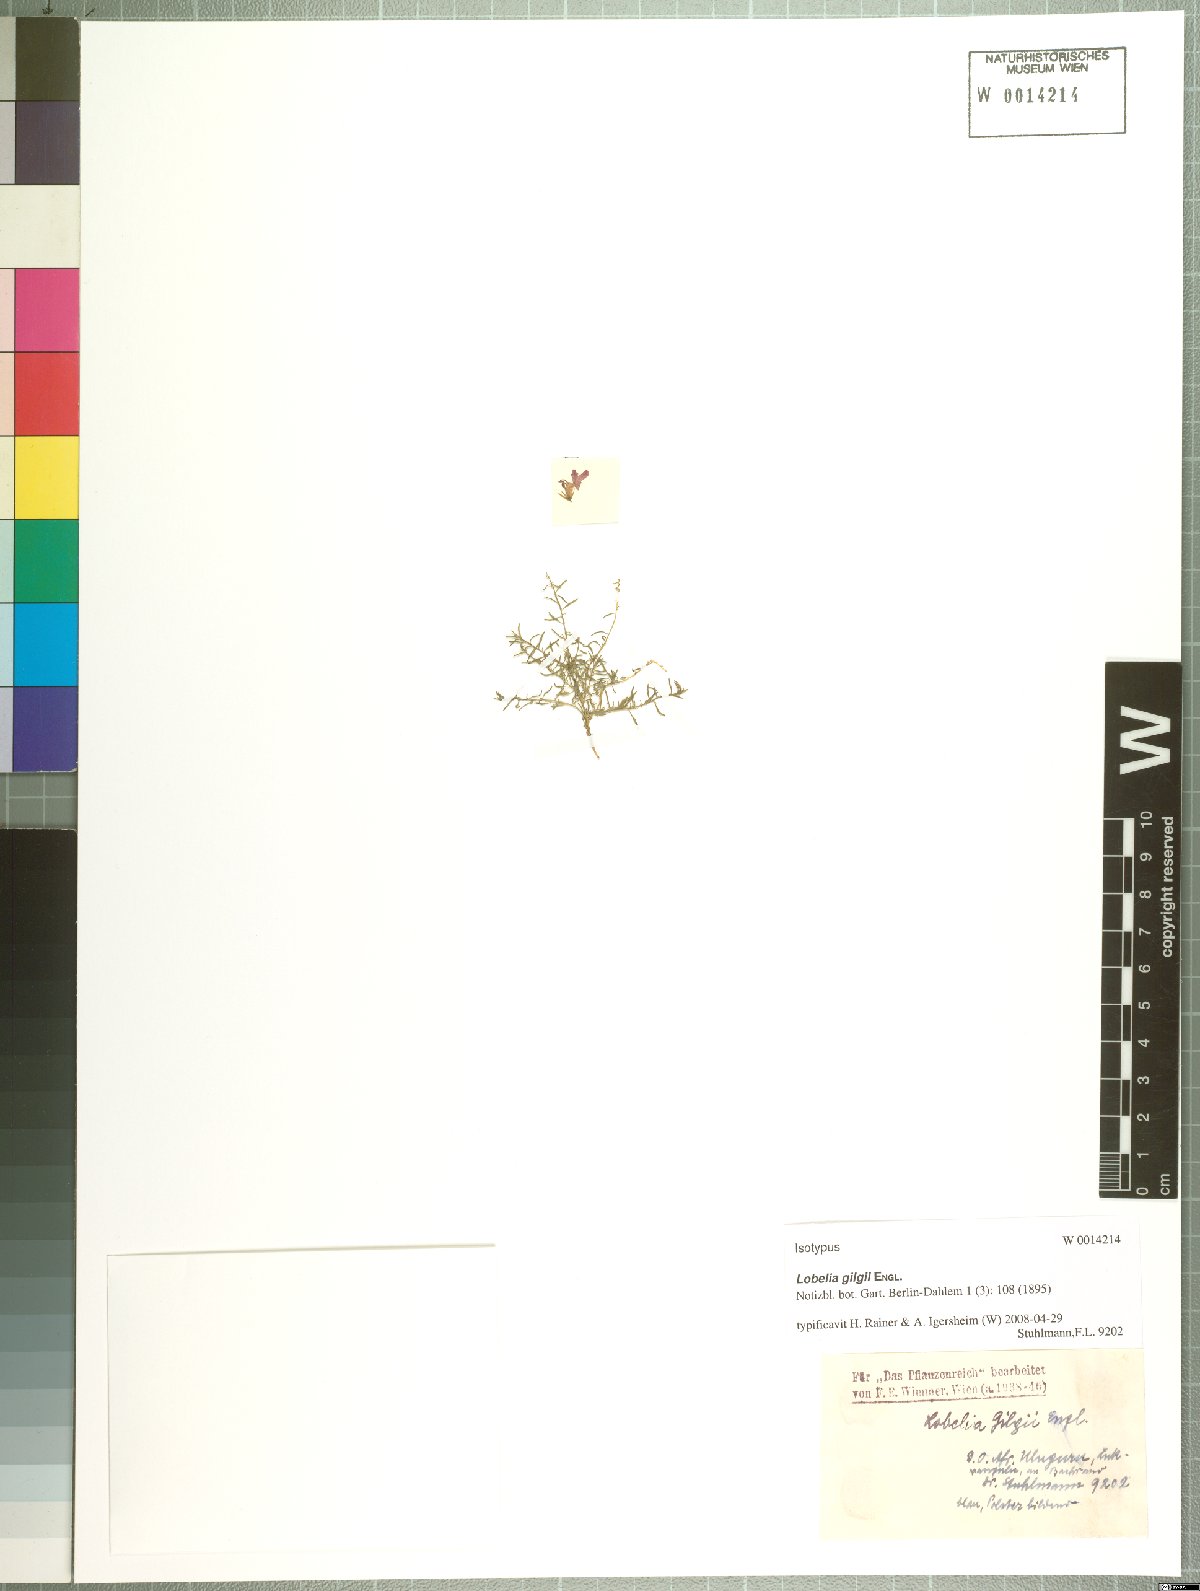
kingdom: Plantae
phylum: Tracheophyta
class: Magnoliopsida
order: Asterales
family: Campanulaceae
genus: Lobelia
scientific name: Lobelia gilgii
